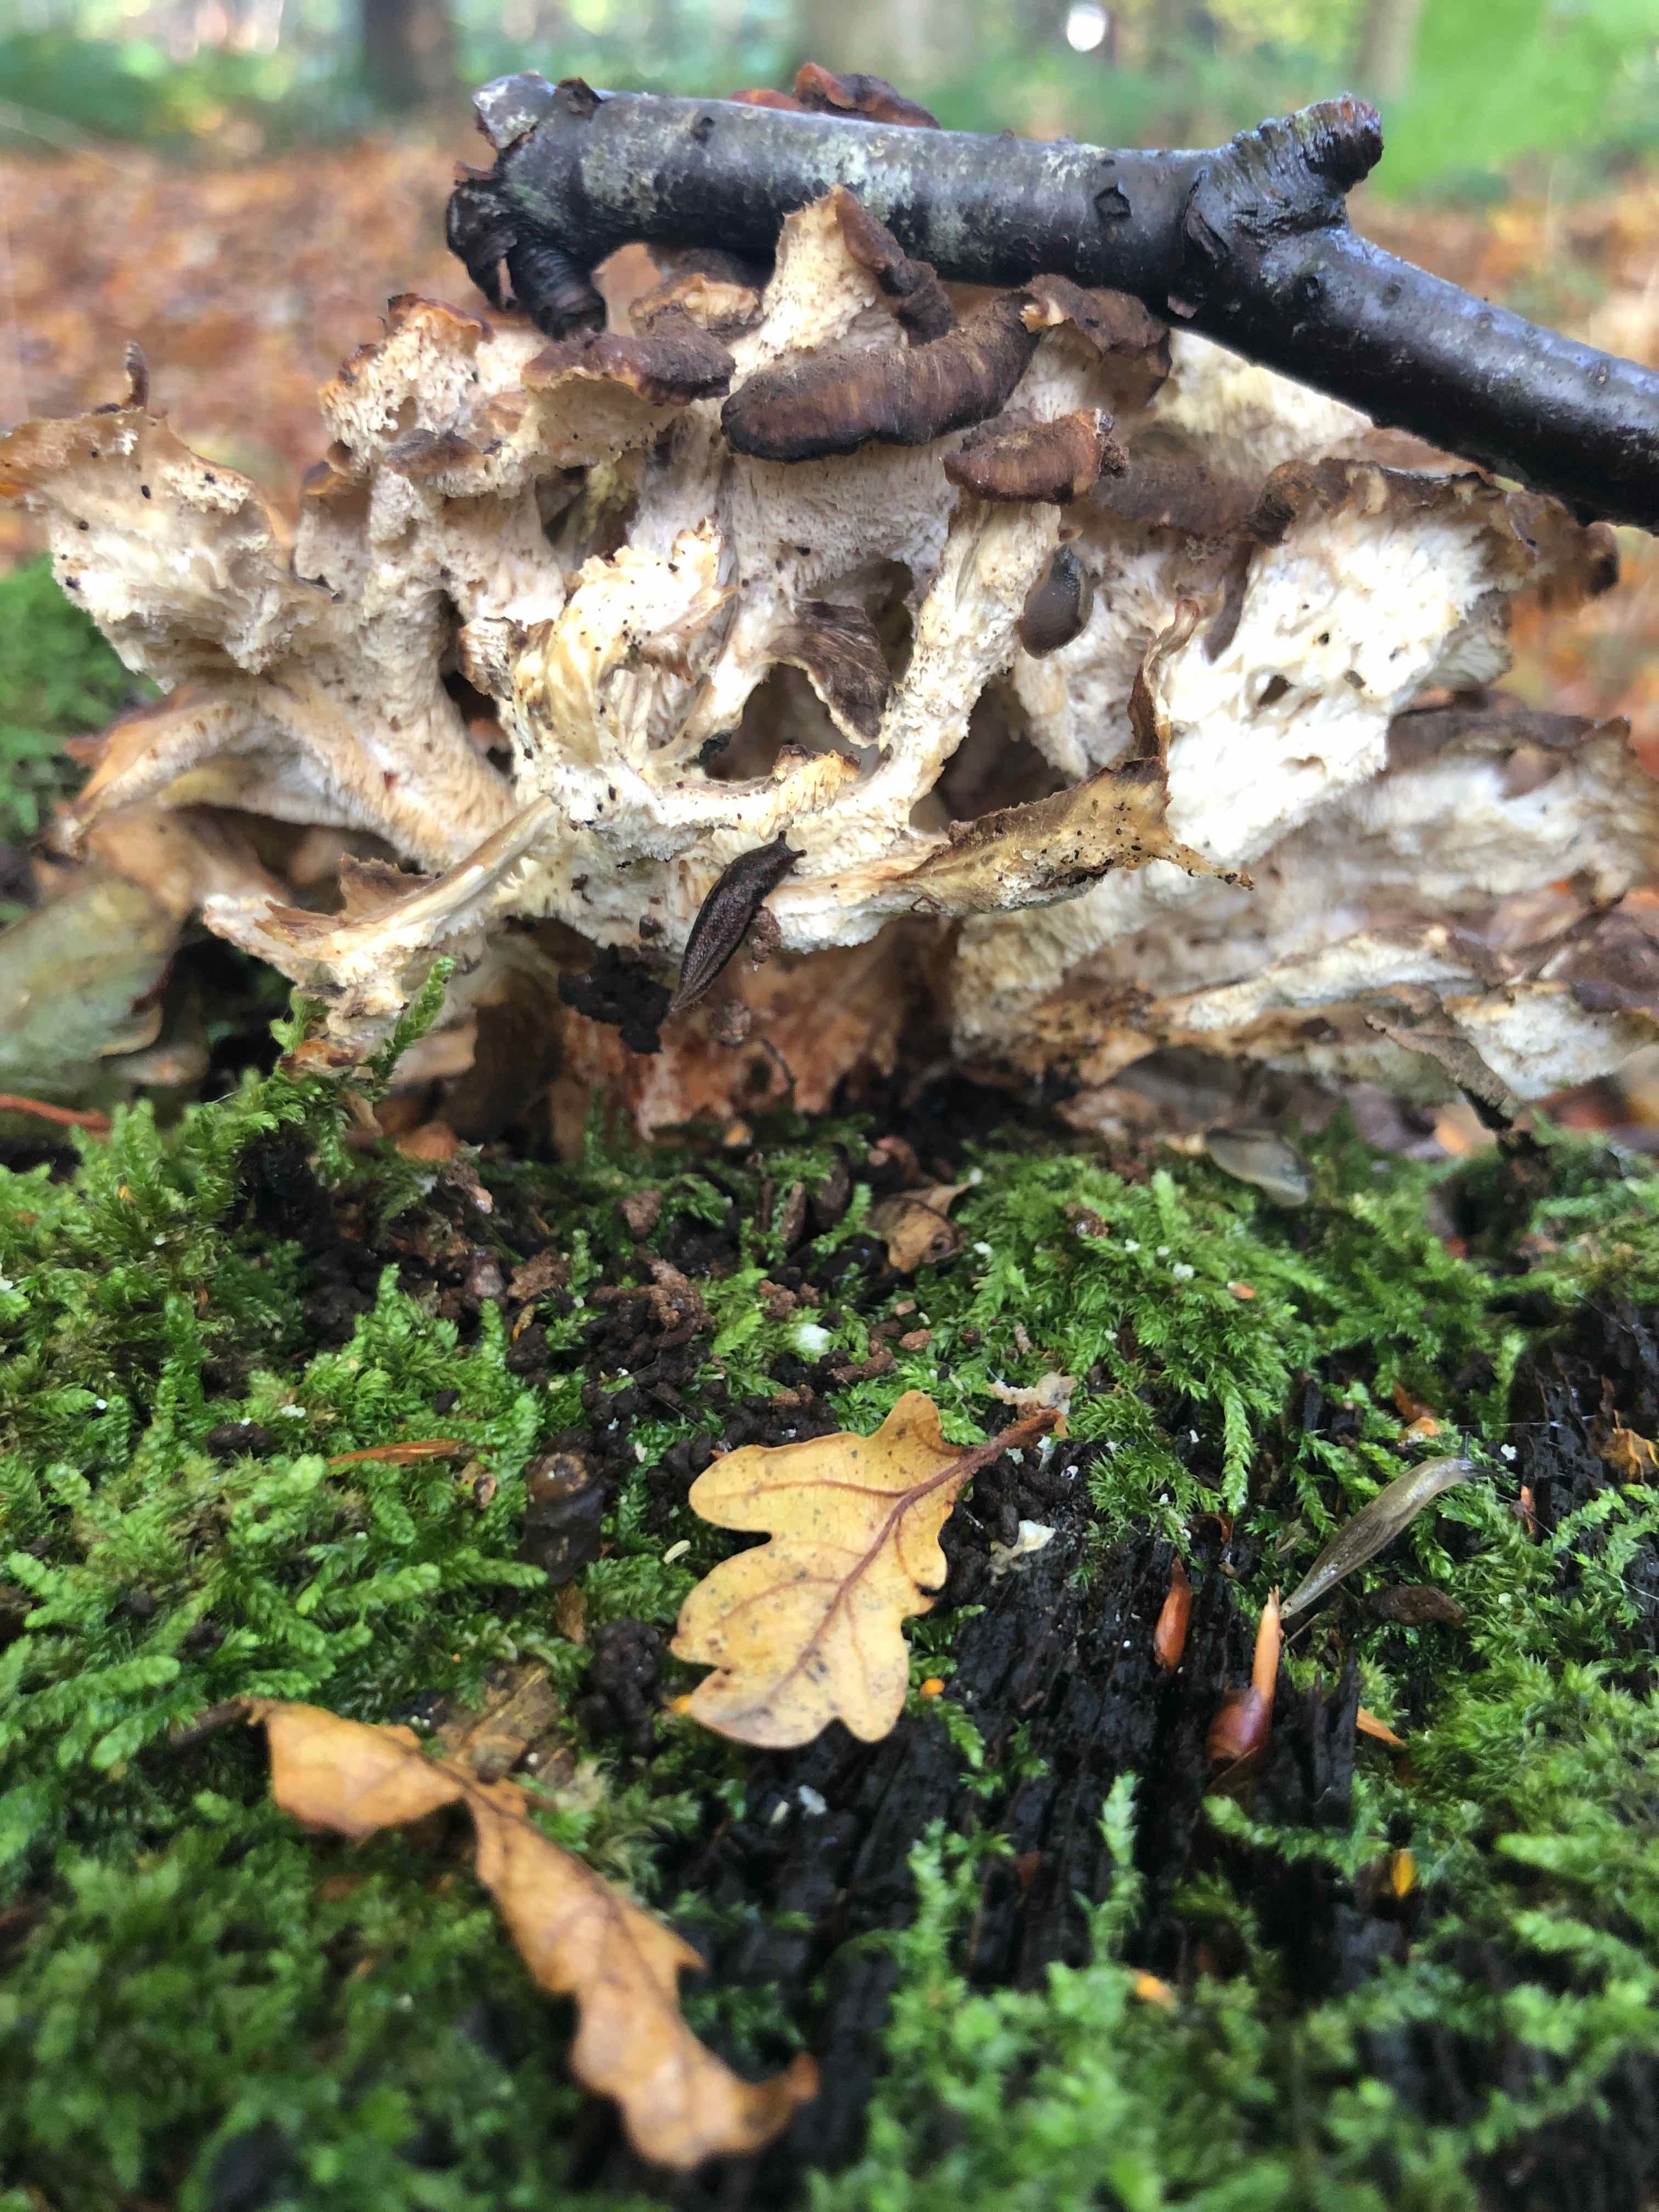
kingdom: Fungi
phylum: Basidiomycota
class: Agaricomycetes
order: Polyporales
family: Grifolaceae
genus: Grifola
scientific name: Grifola frondosa
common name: tueporesvamp
